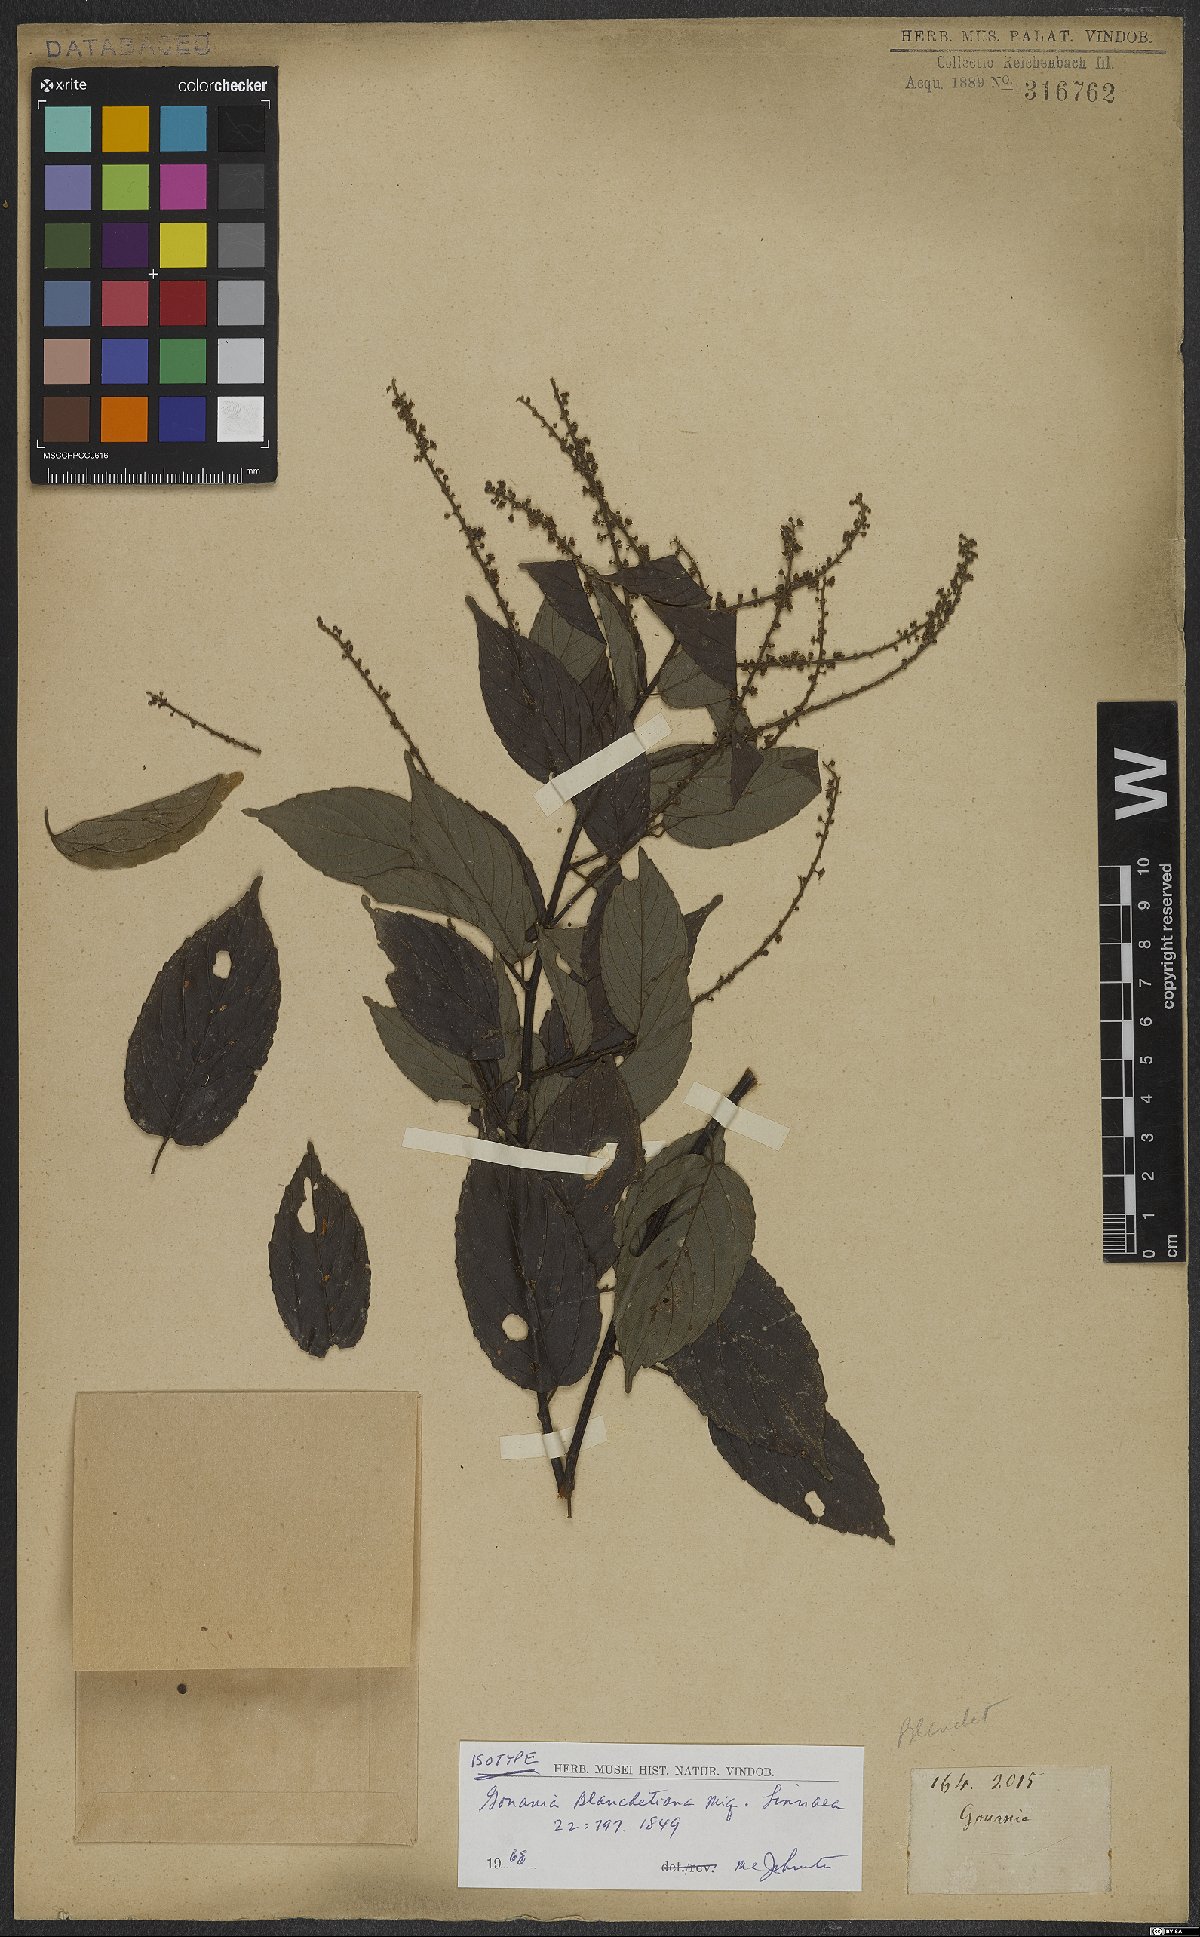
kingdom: Plantae
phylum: Tracheophyta
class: Magnoliopsida
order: Rosales
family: Rhamnaceae
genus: Gouania
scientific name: Gouania blanchetiana
